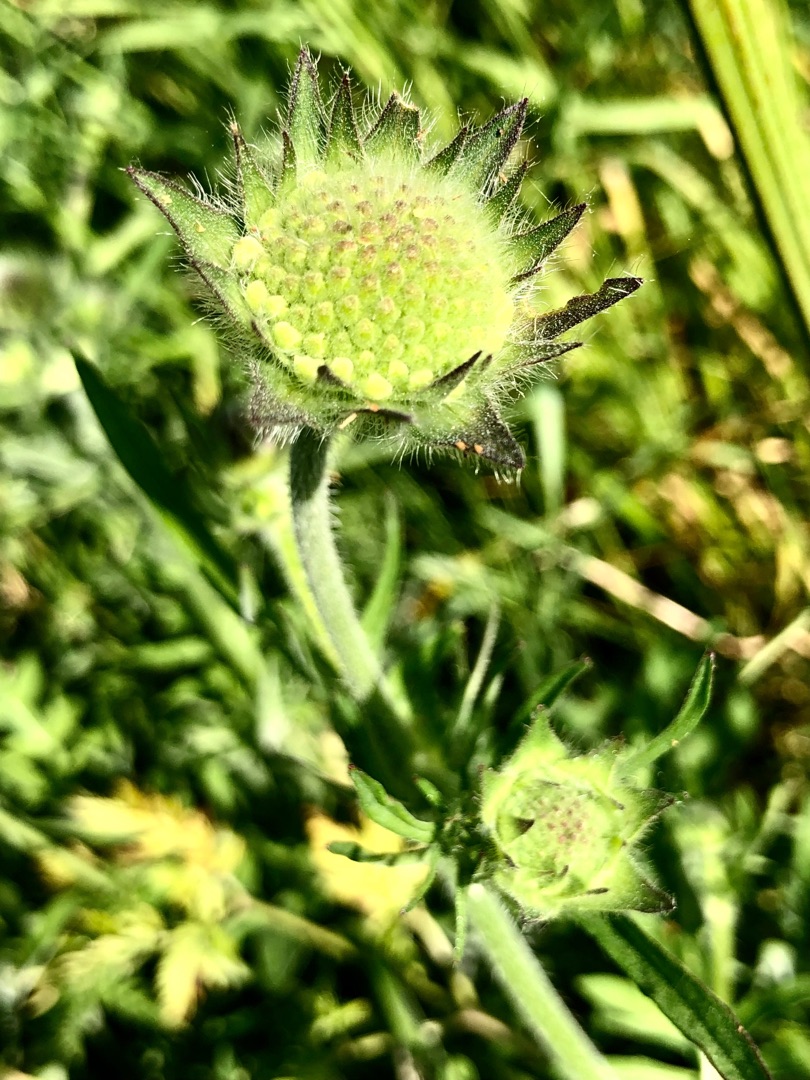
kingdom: Plantae
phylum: Tracheophyta
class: Magnoliopsida
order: Dipsacales
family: Caprifoliaceae
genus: Knautia
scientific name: Knautia arvensis
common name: Blåhat
